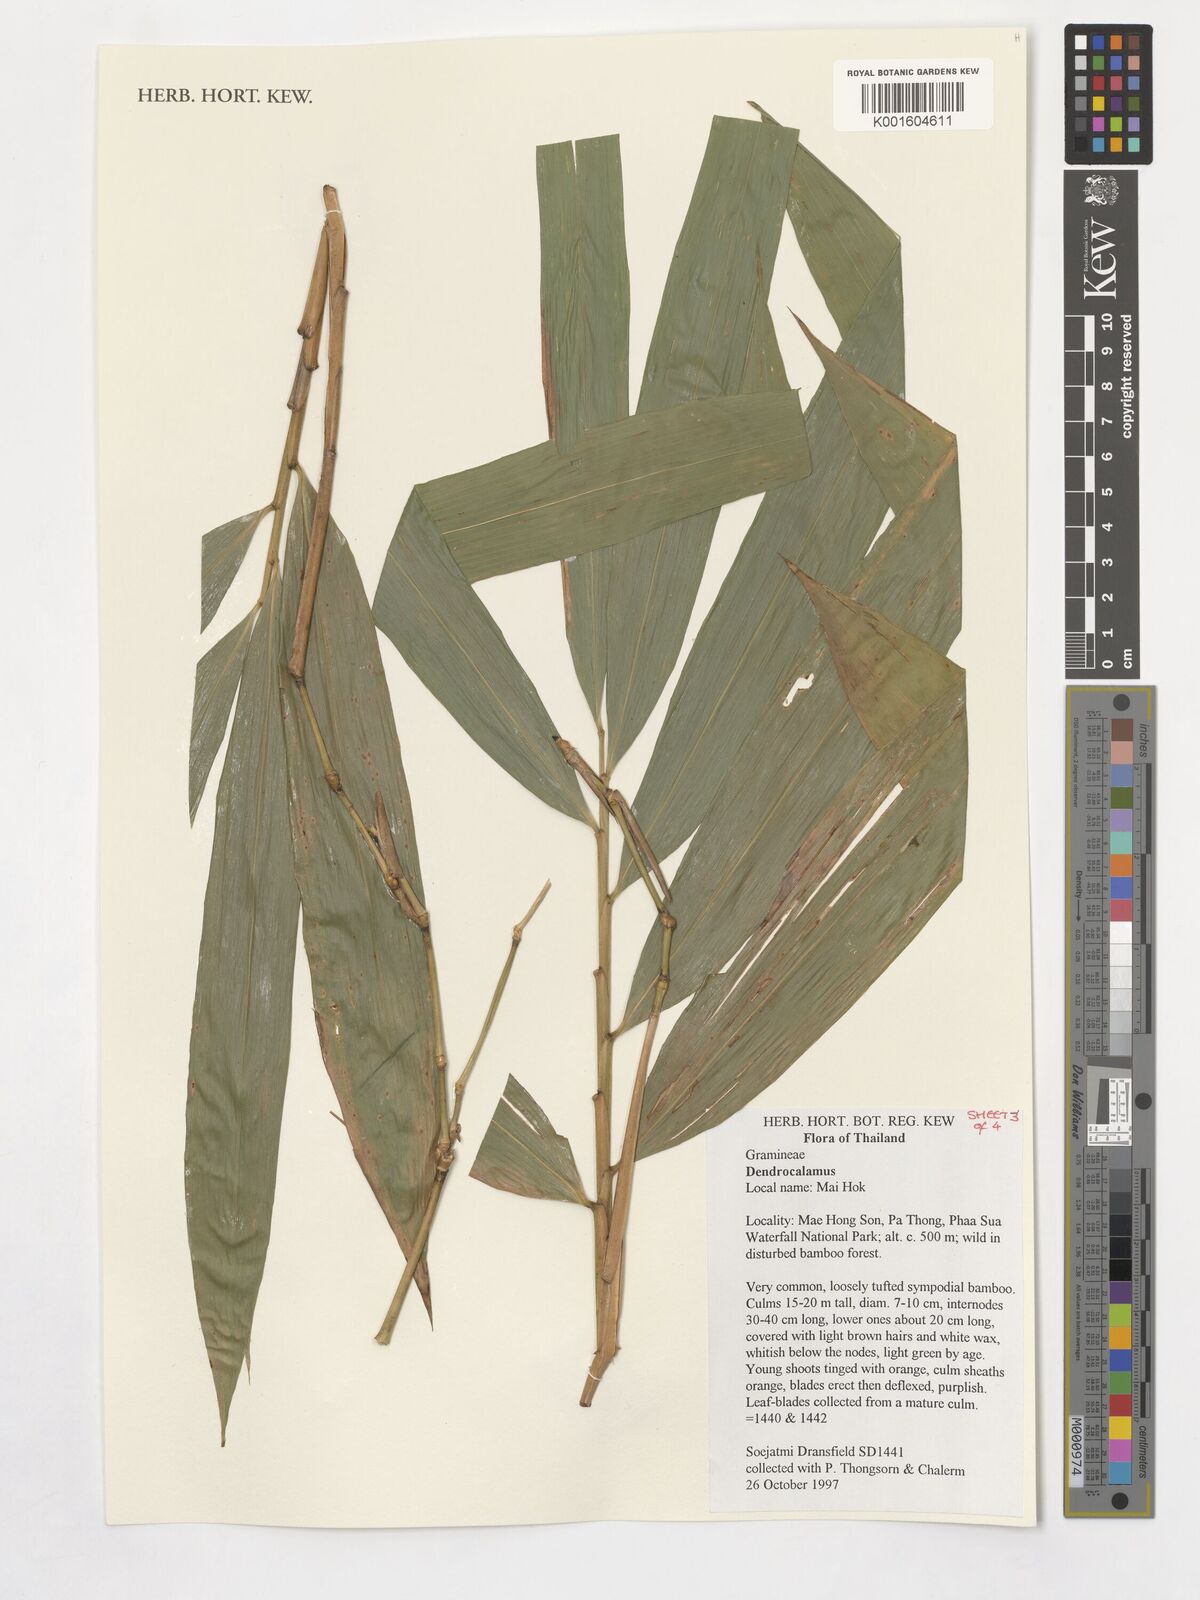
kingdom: Plantae
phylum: Tracheophyta
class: Liliopsida
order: Poales
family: Poaceae
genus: Dendrocalamus
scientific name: Dendrocalamus
